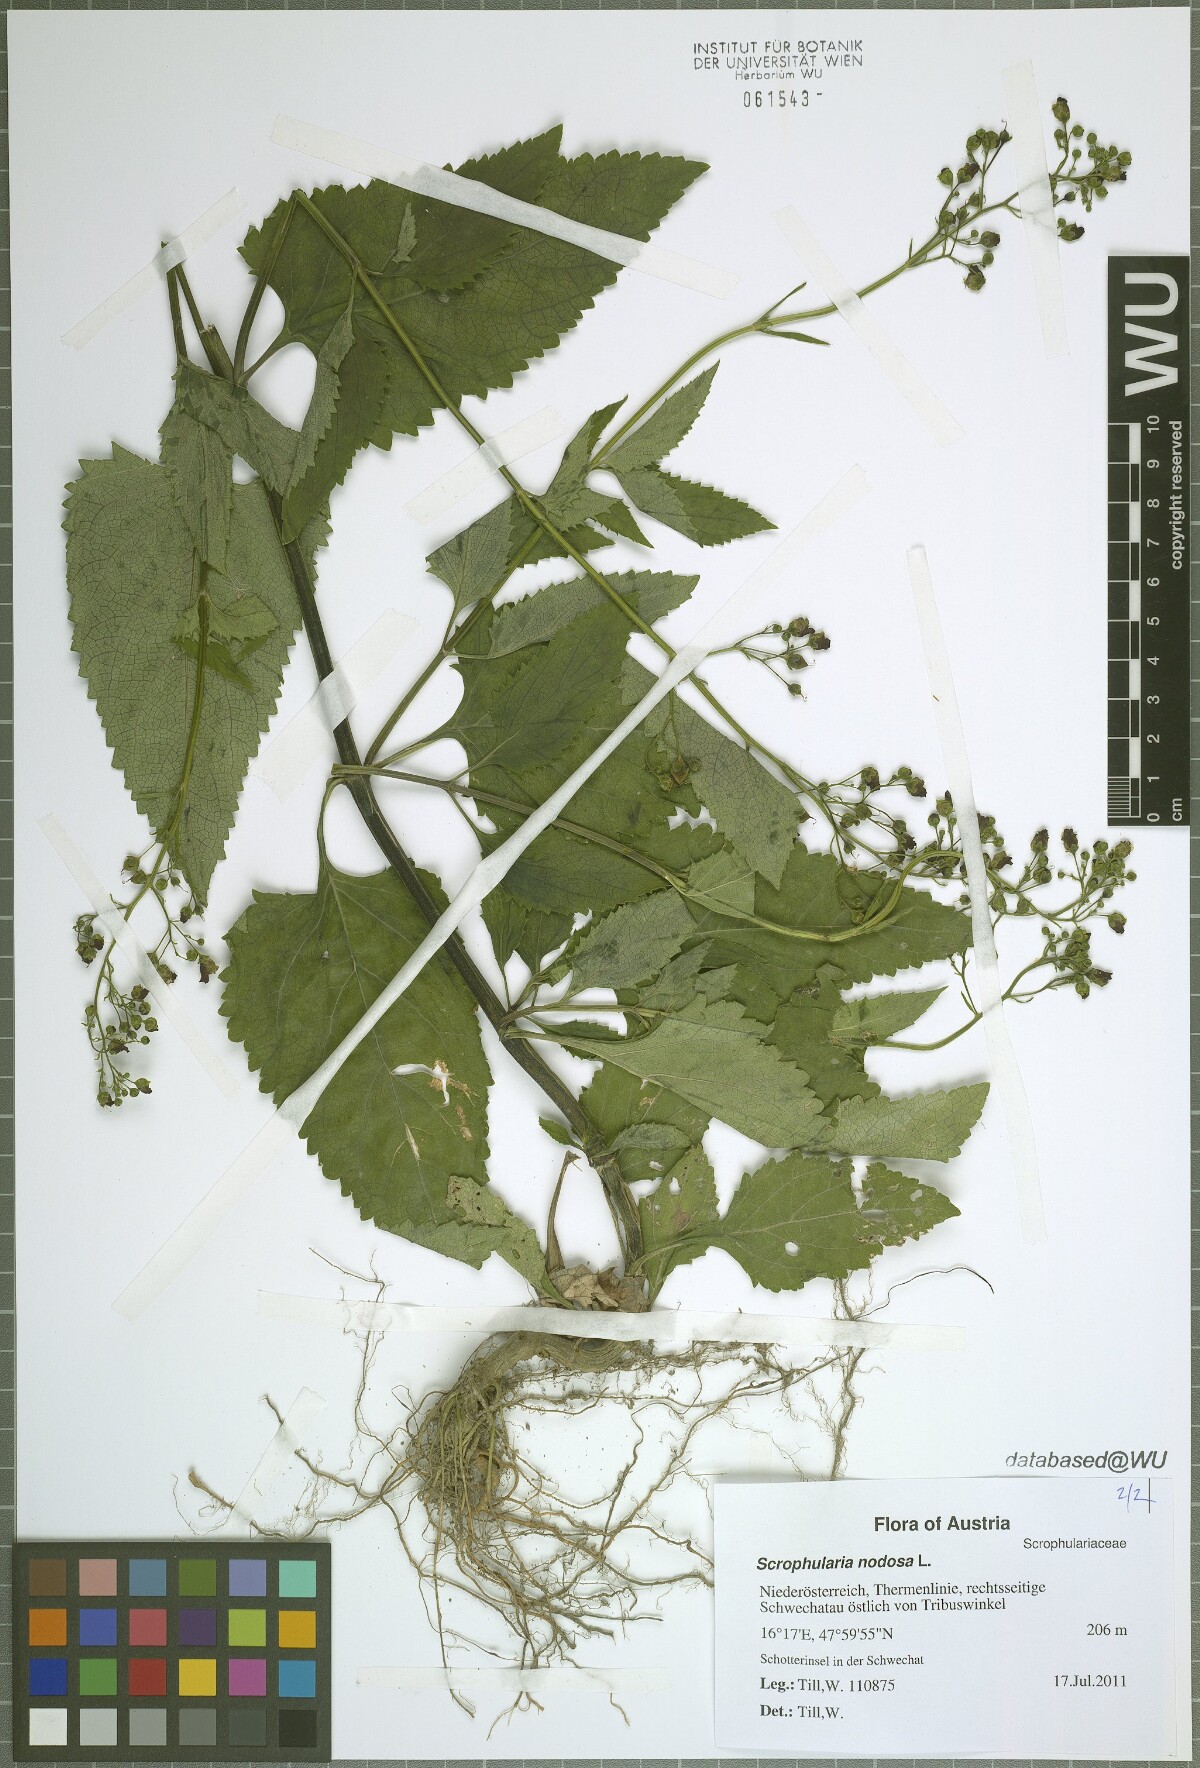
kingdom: Plantae
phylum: Tracheophyta
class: Magnoliopsida
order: Lamiales
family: Scrophulariaceae
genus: Scrophularia
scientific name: Scrophularia nodosa
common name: Common figwort
